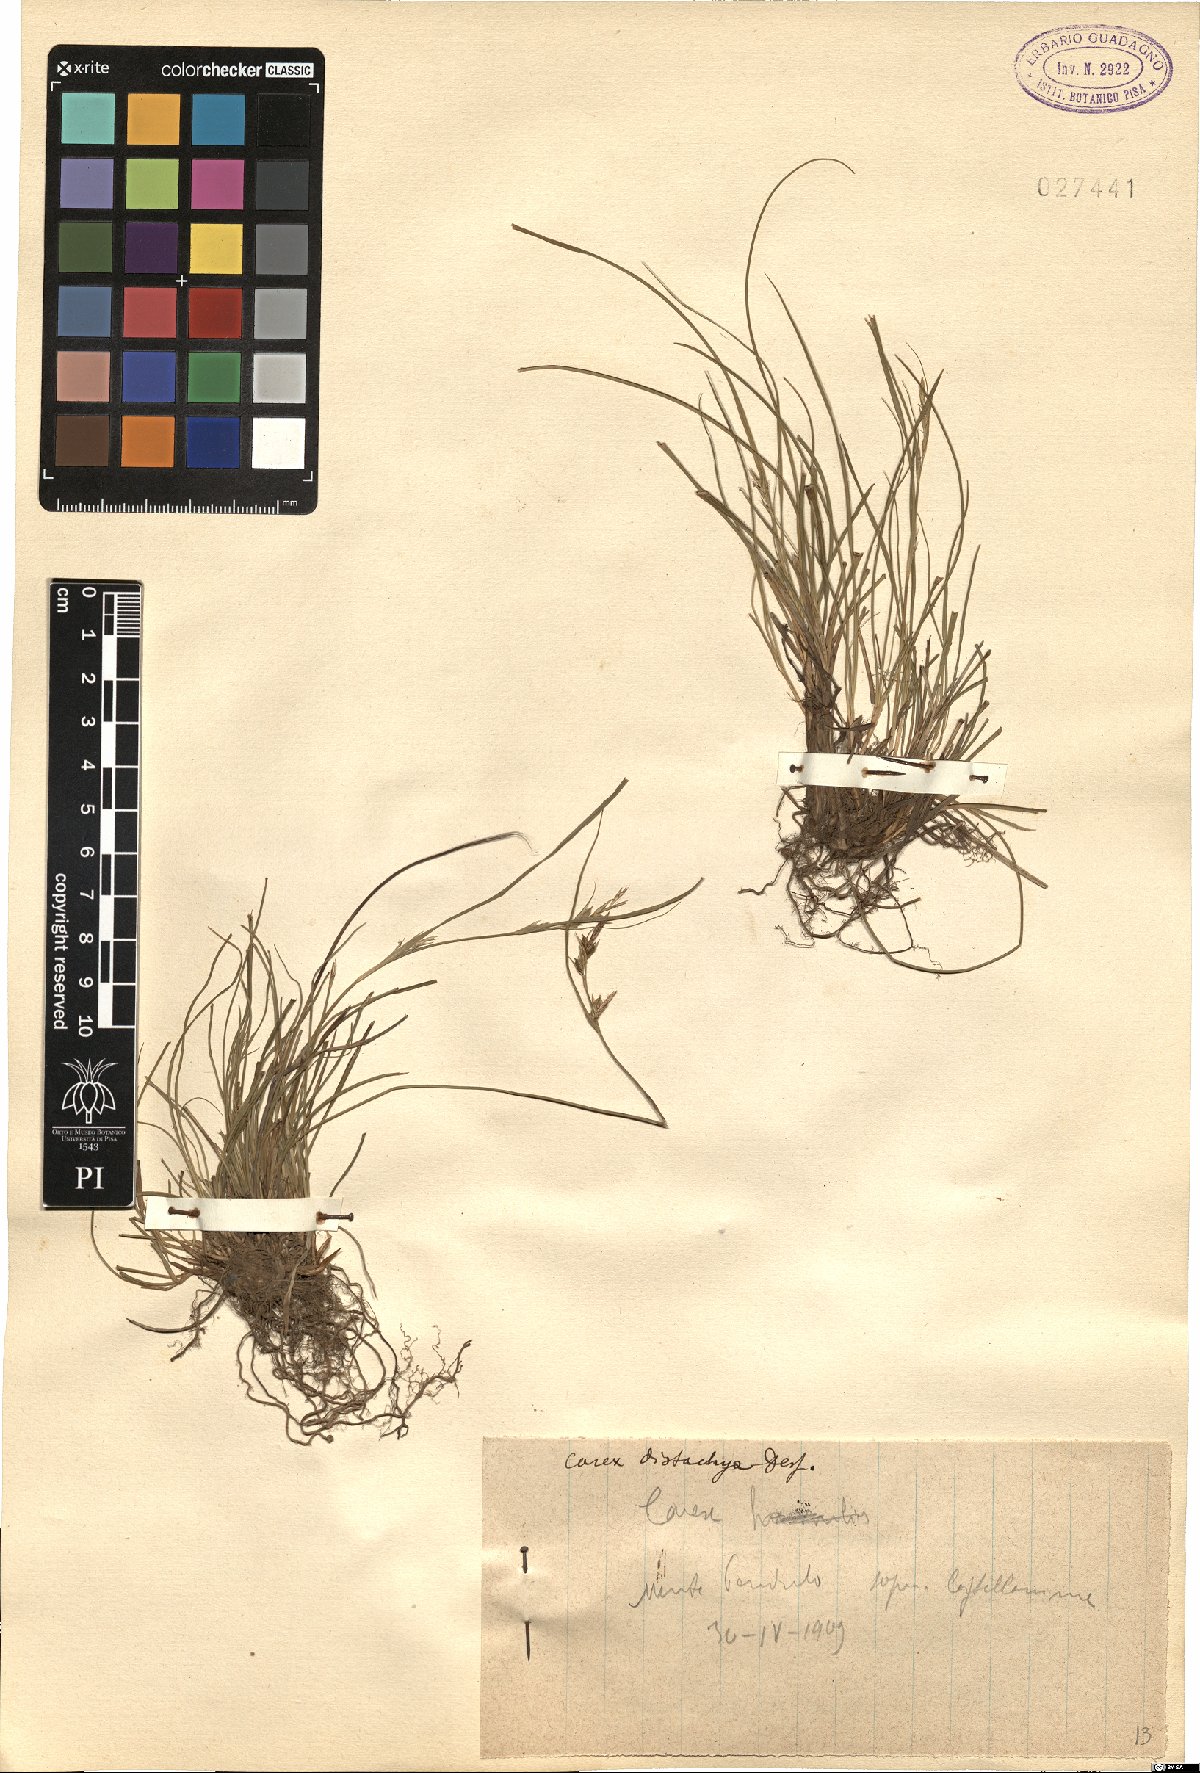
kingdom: Plantae
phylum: Tracheophyta
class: Liliopsida
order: Poales
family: Cyperaceae
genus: Carex
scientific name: Carex distachya
